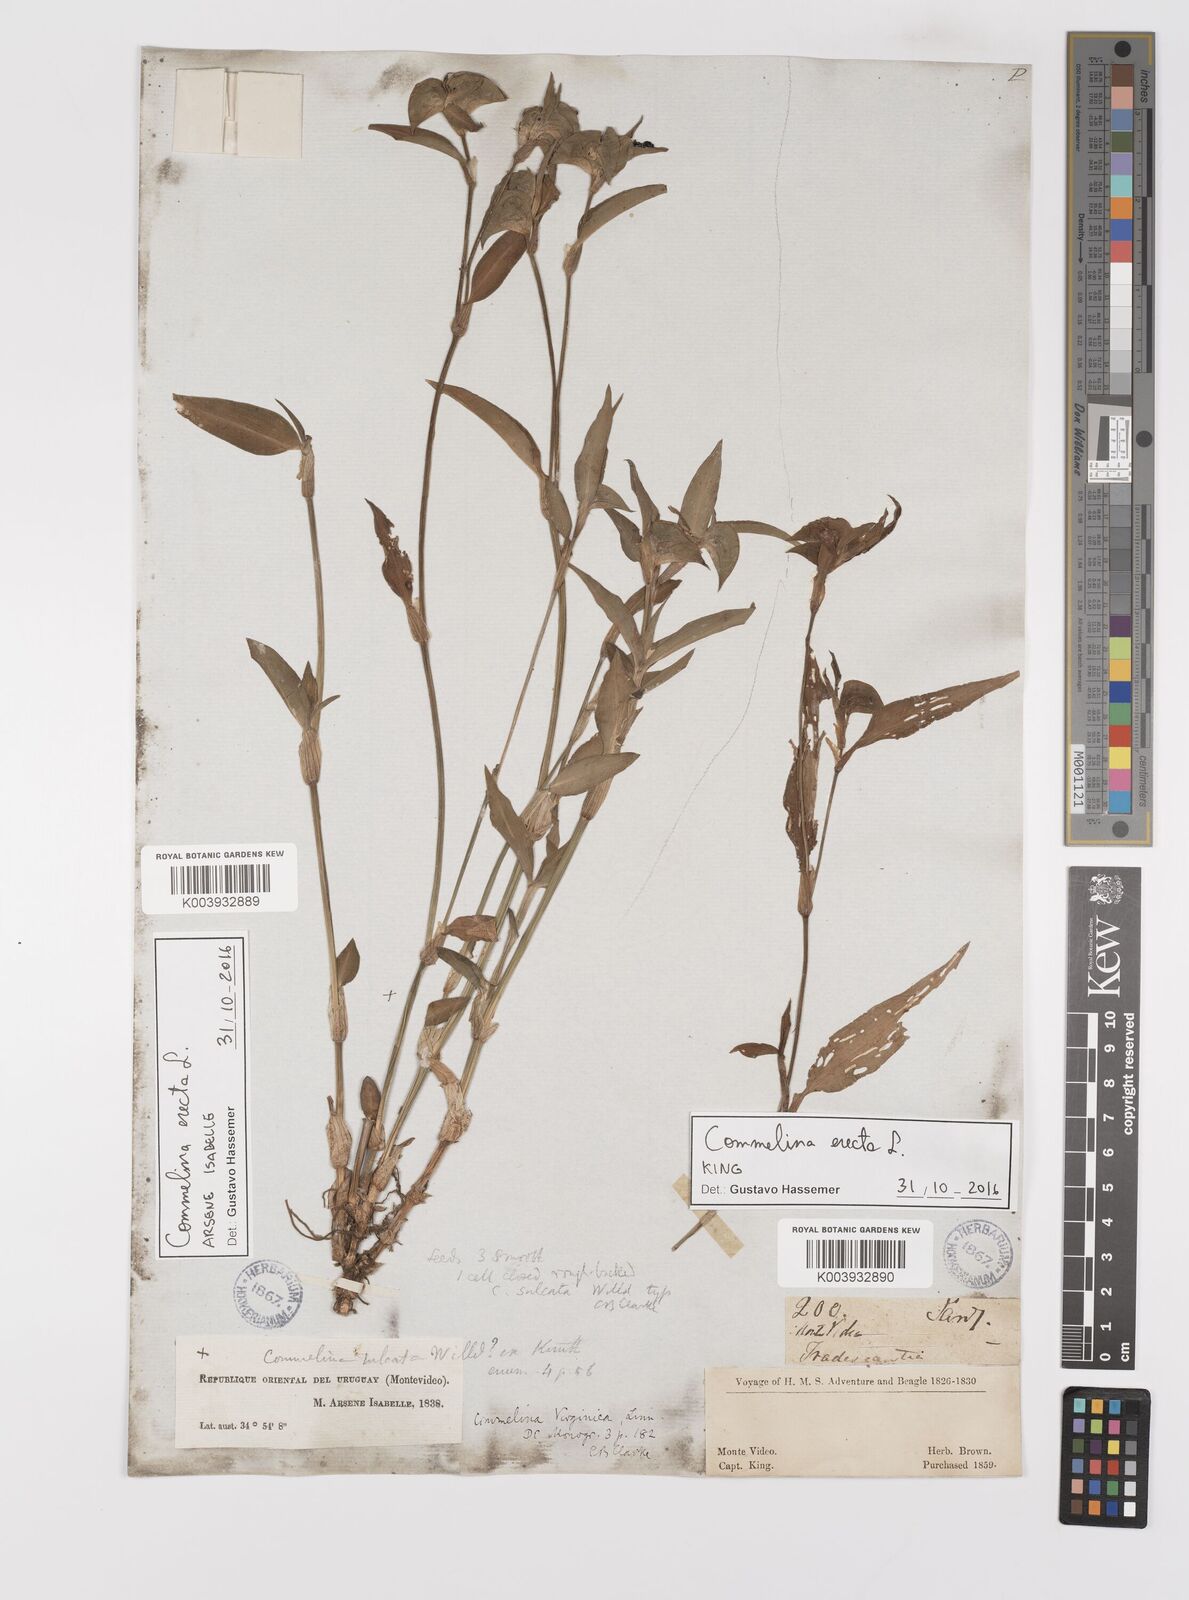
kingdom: Plantae
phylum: Tracheophyta
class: Liliopsida
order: Commelinales
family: Commelinaceae
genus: Commelina
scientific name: Commelina erecta
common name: Blousel blommetjie
